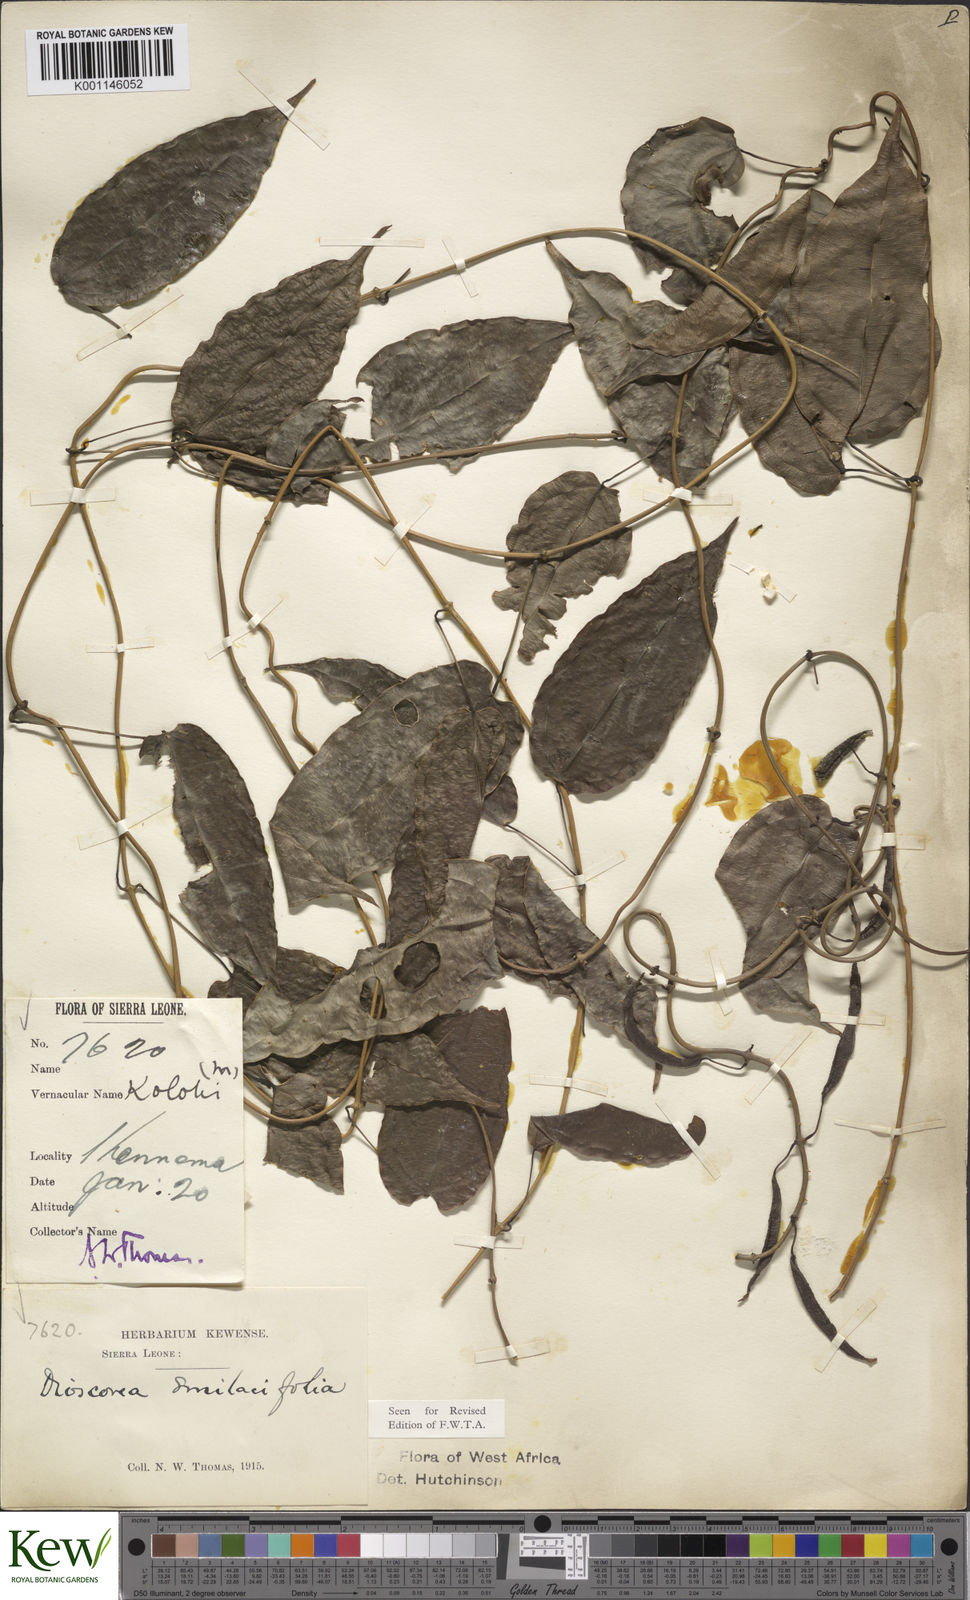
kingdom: Plantae
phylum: Tracheophyta
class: Liliopsida
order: Dioscoreales
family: Dioscoreaceae
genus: Dioscorea
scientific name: Dioscorea smilacifolia
